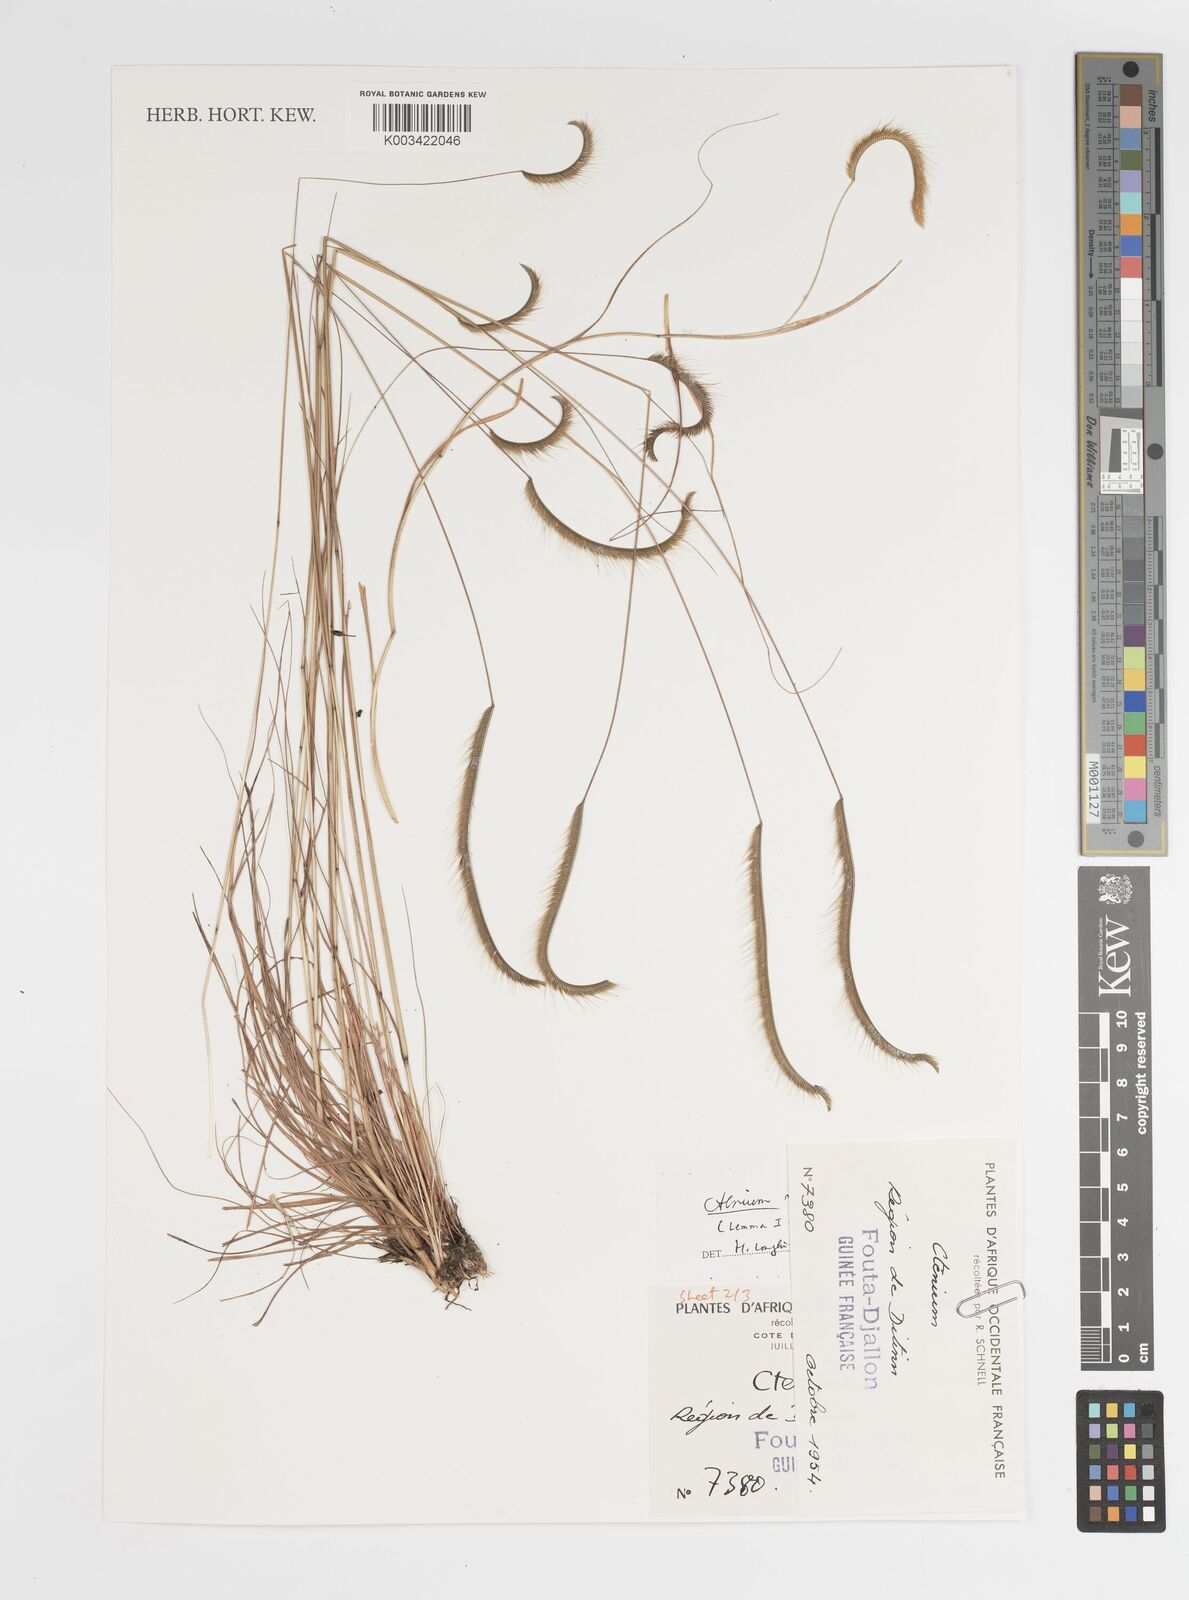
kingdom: Plantae
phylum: Tracheophyta
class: Liliopsida
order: Poales
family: Poaceae
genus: Ctenium
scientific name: Ctenium newtonii
